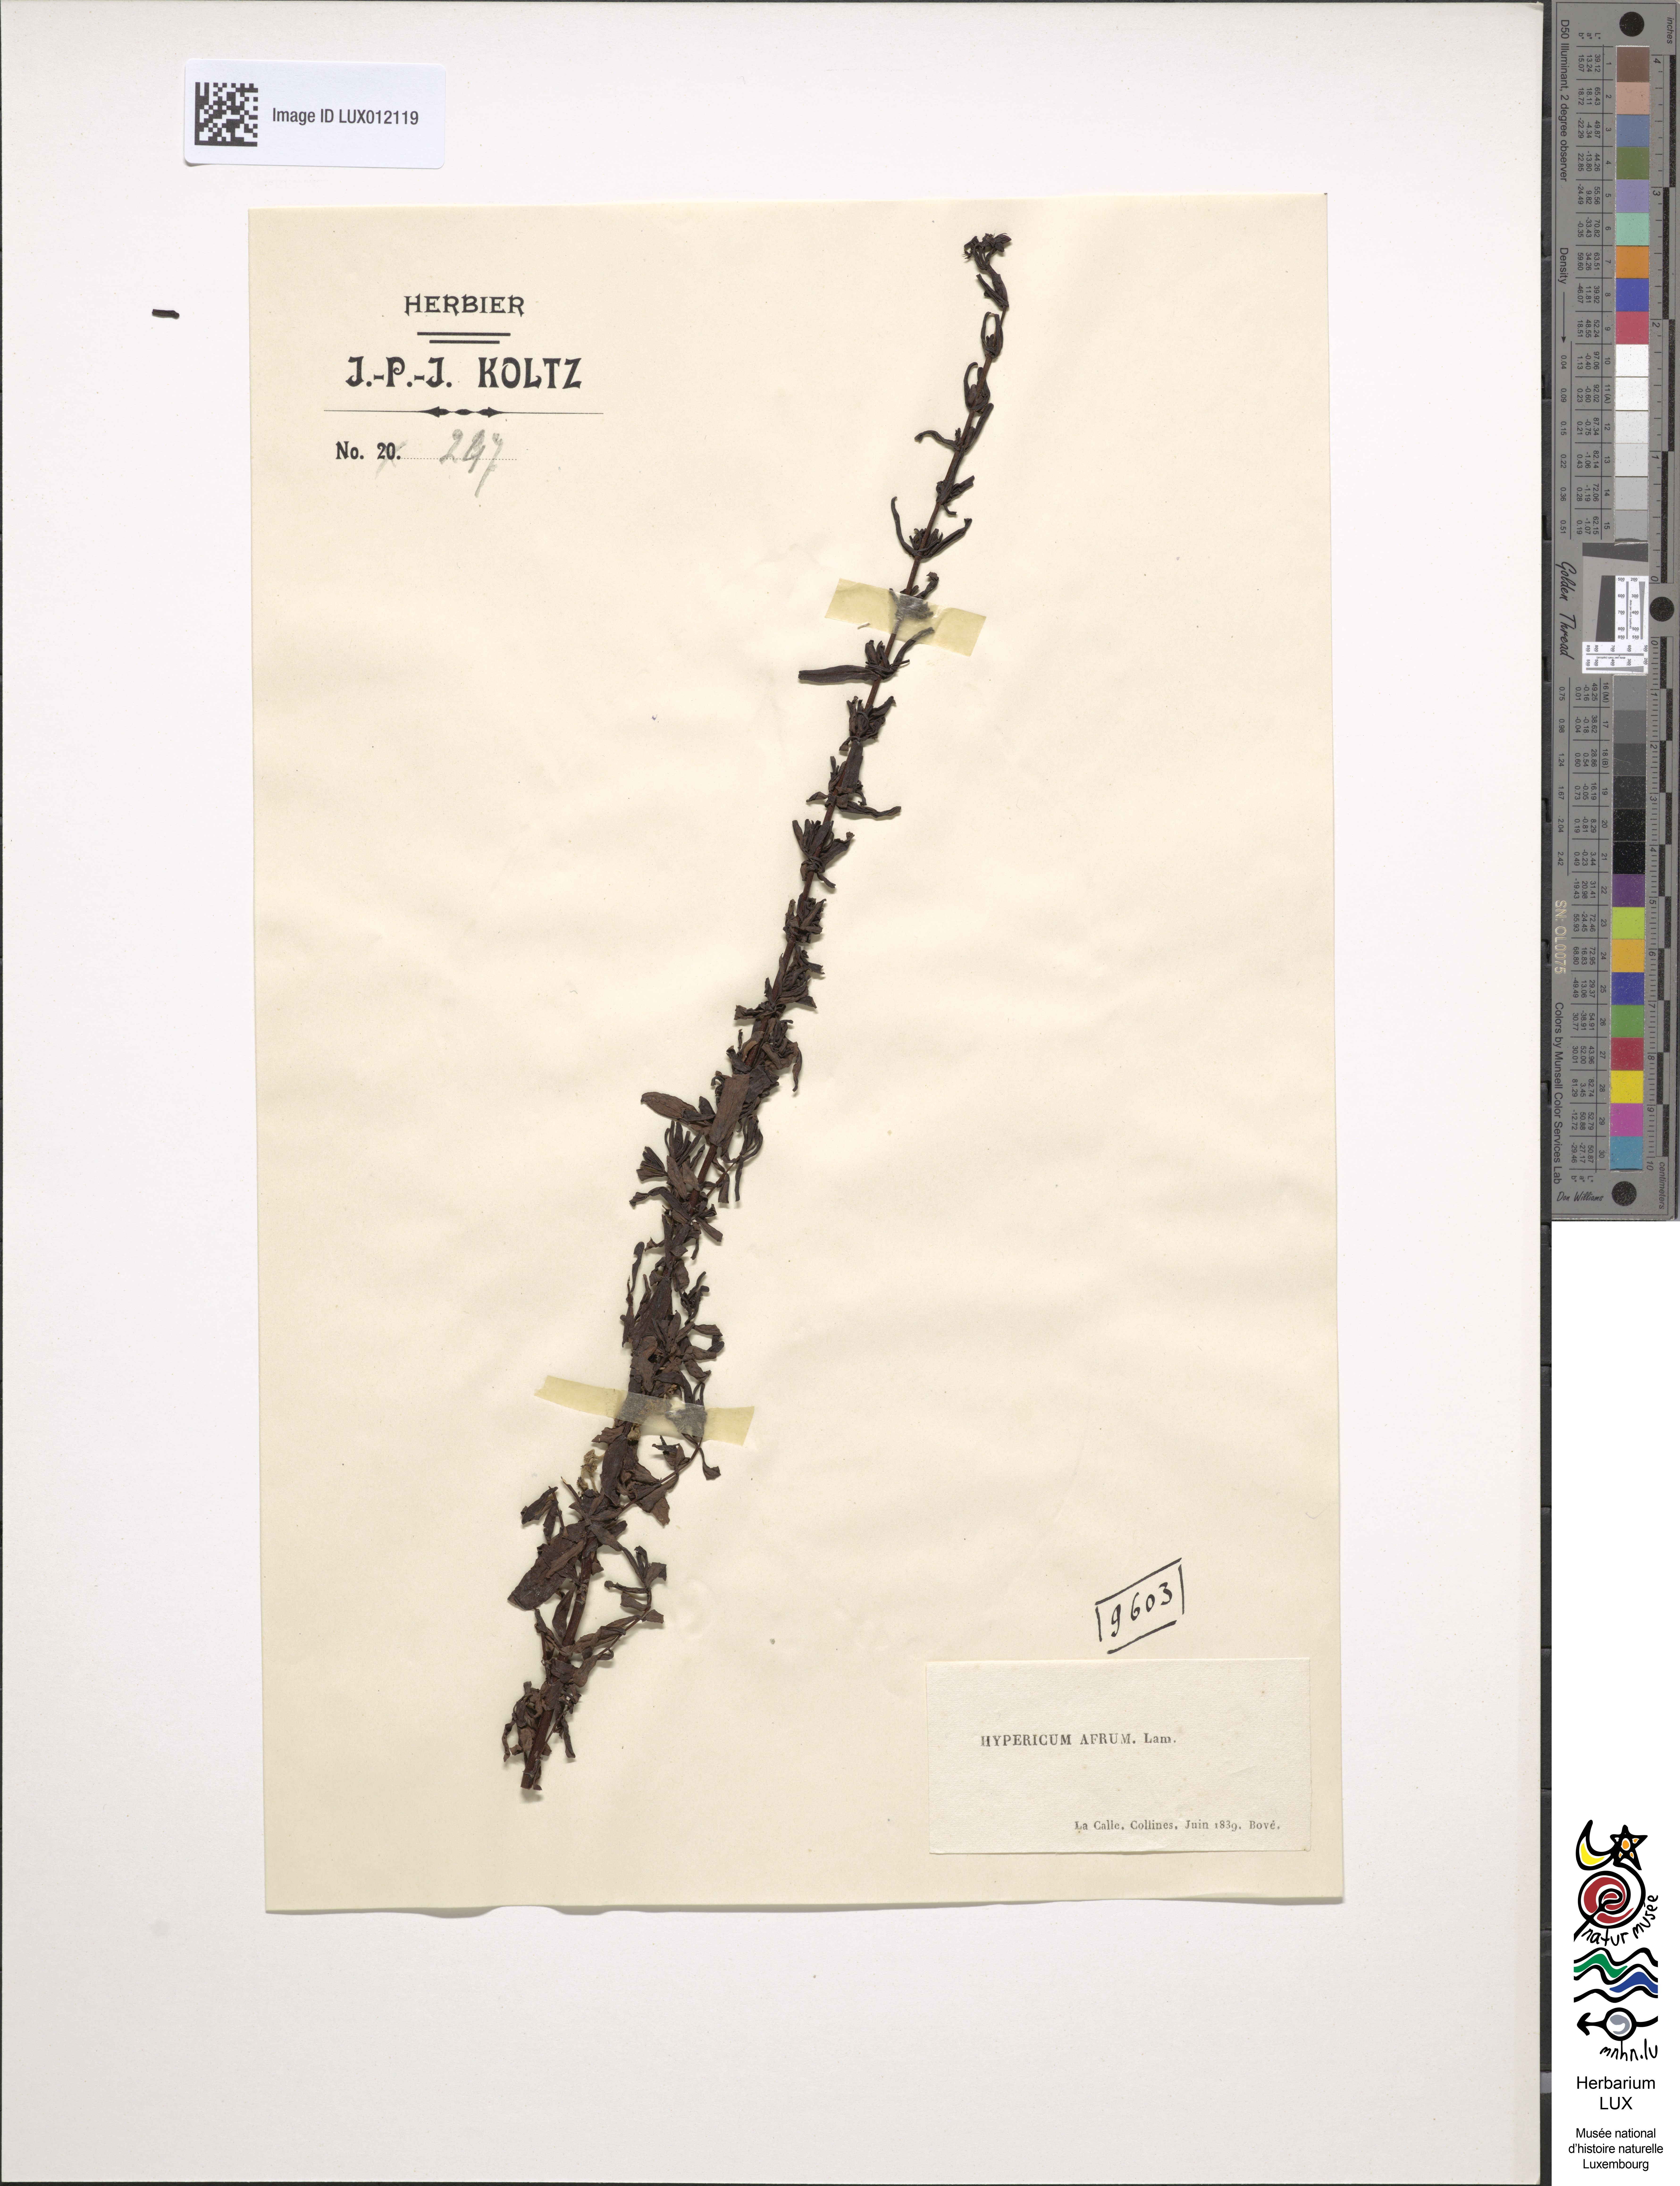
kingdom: Plantae
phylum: Tracheophyta
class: Magnoliopsida
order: Malpighiales
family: Hypericaceae
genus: Hypericum
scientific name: Hypericum afrum
